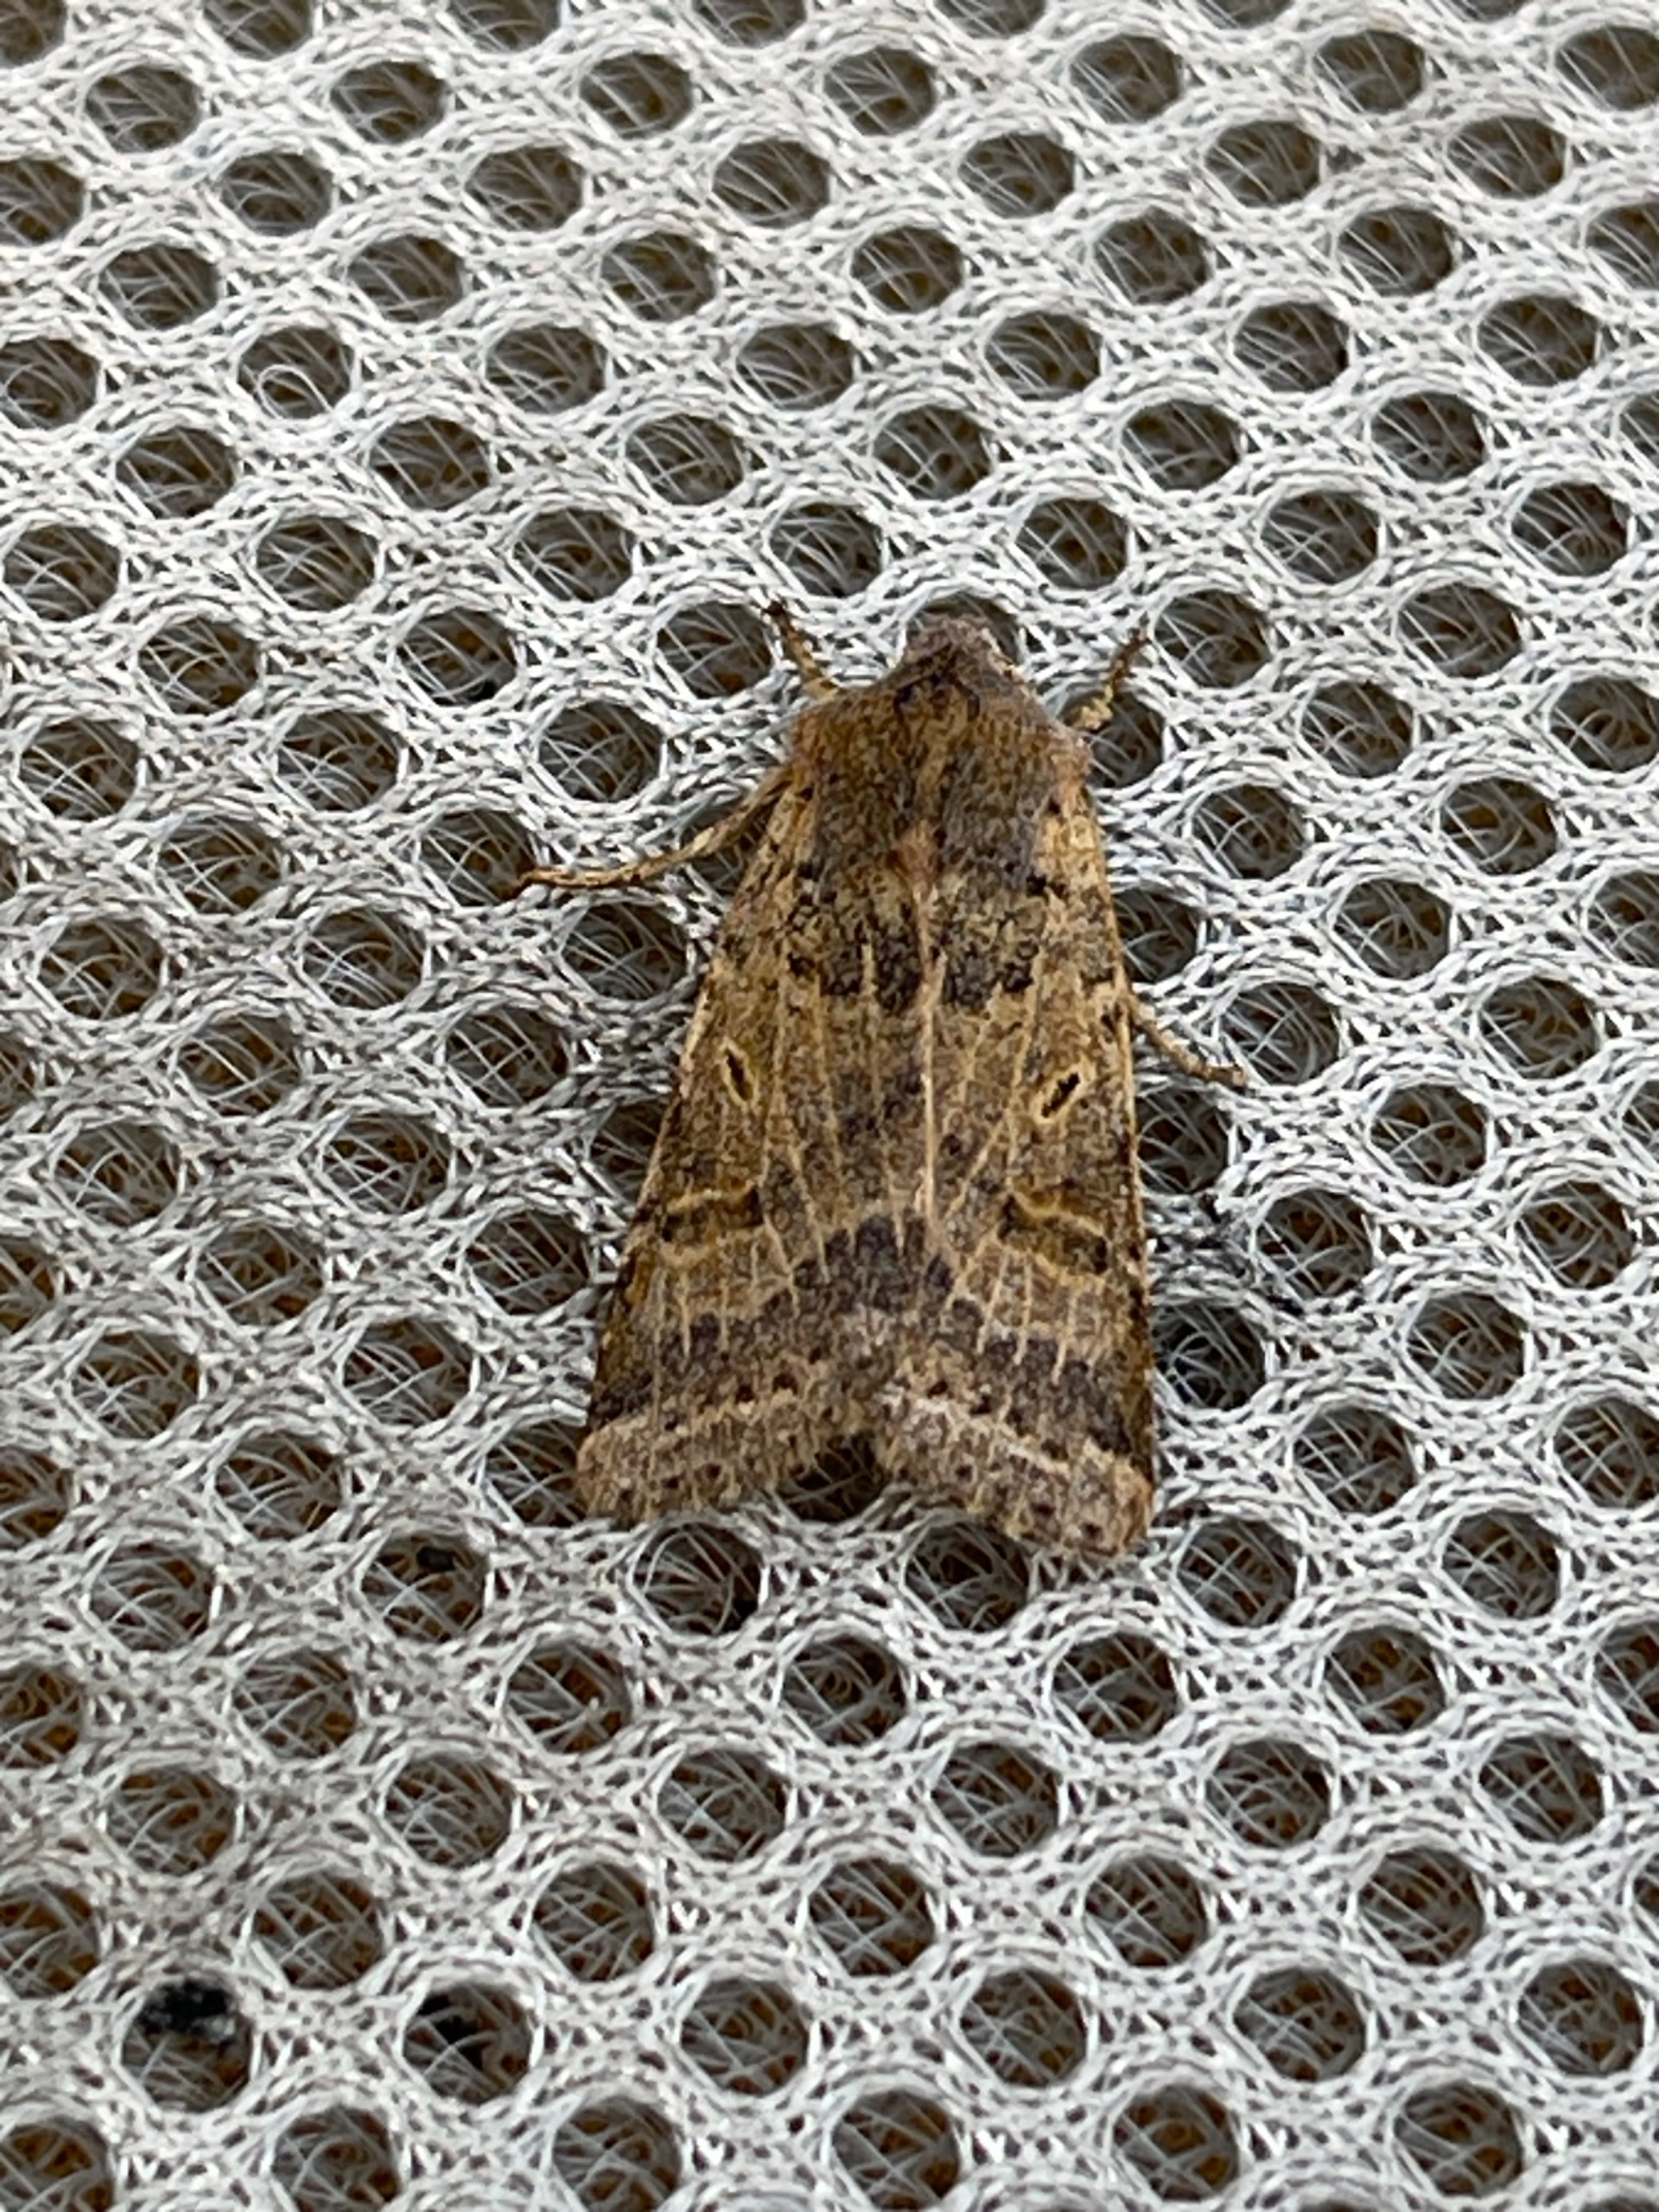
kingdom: Animalia
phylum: Arthropoda
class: Insecta
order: Lepidoptera
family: Noctuidae
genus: Agrochola
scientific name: Agrochola lychnidis
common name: Foranderlig jordfarveugle
